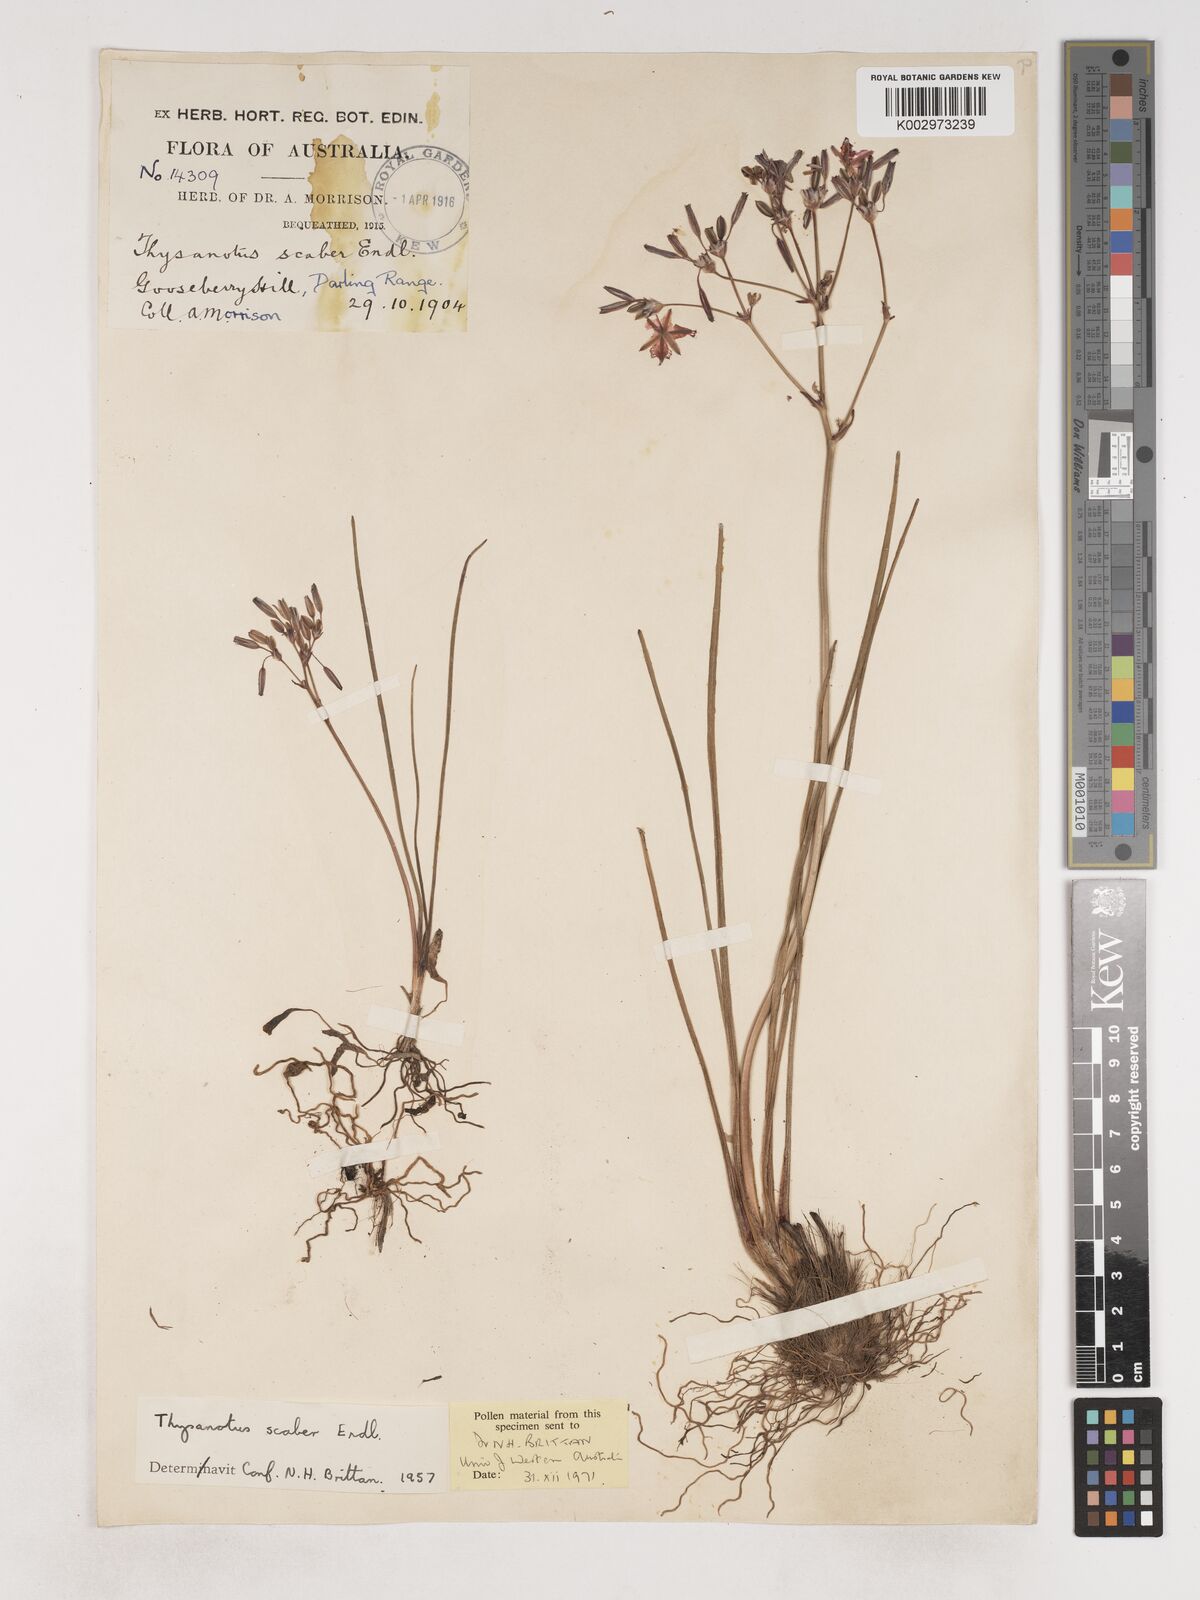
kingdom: Plantae
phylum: Tracheophyta
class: Liliopsida
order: Asparagales
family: Asparagaceae
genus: Thysanotus
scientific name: Thysanotus scaber
